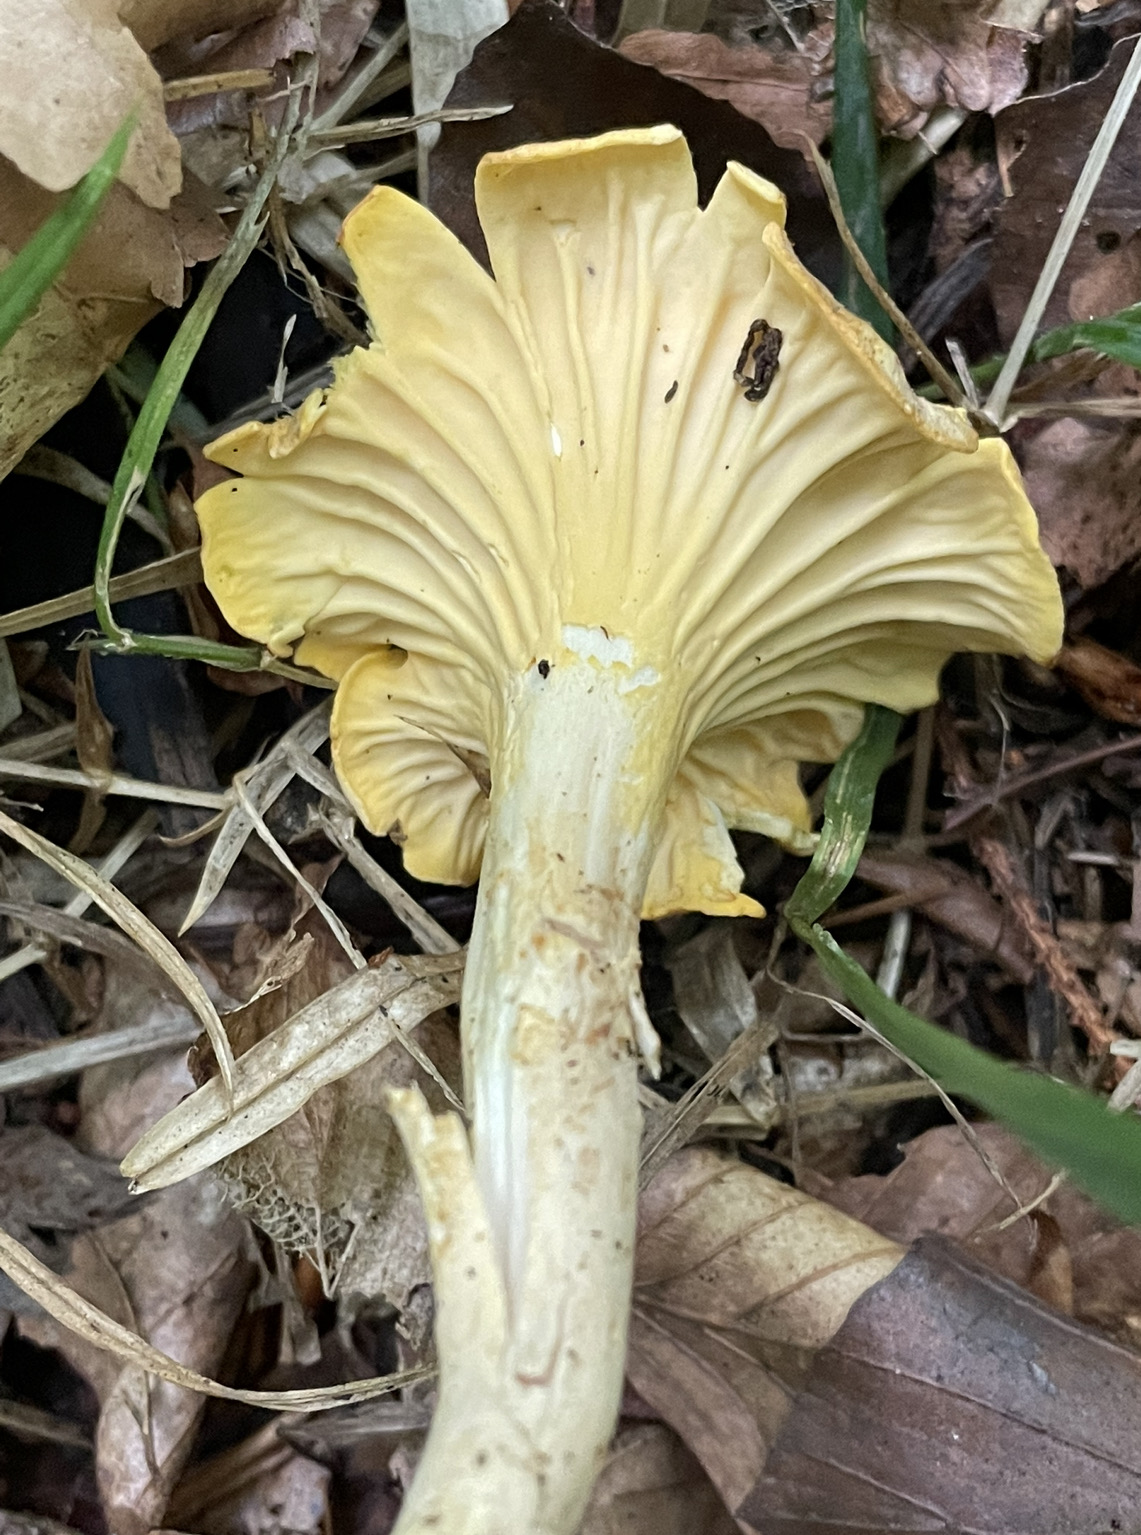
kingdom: Fungi
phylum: Basidiomycota
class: Agaricomycetes
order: Cantharellales
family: Hydnaceae
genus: Cantharellus
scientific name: Cantharellus amethysteus
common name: ametyst-kantarel
